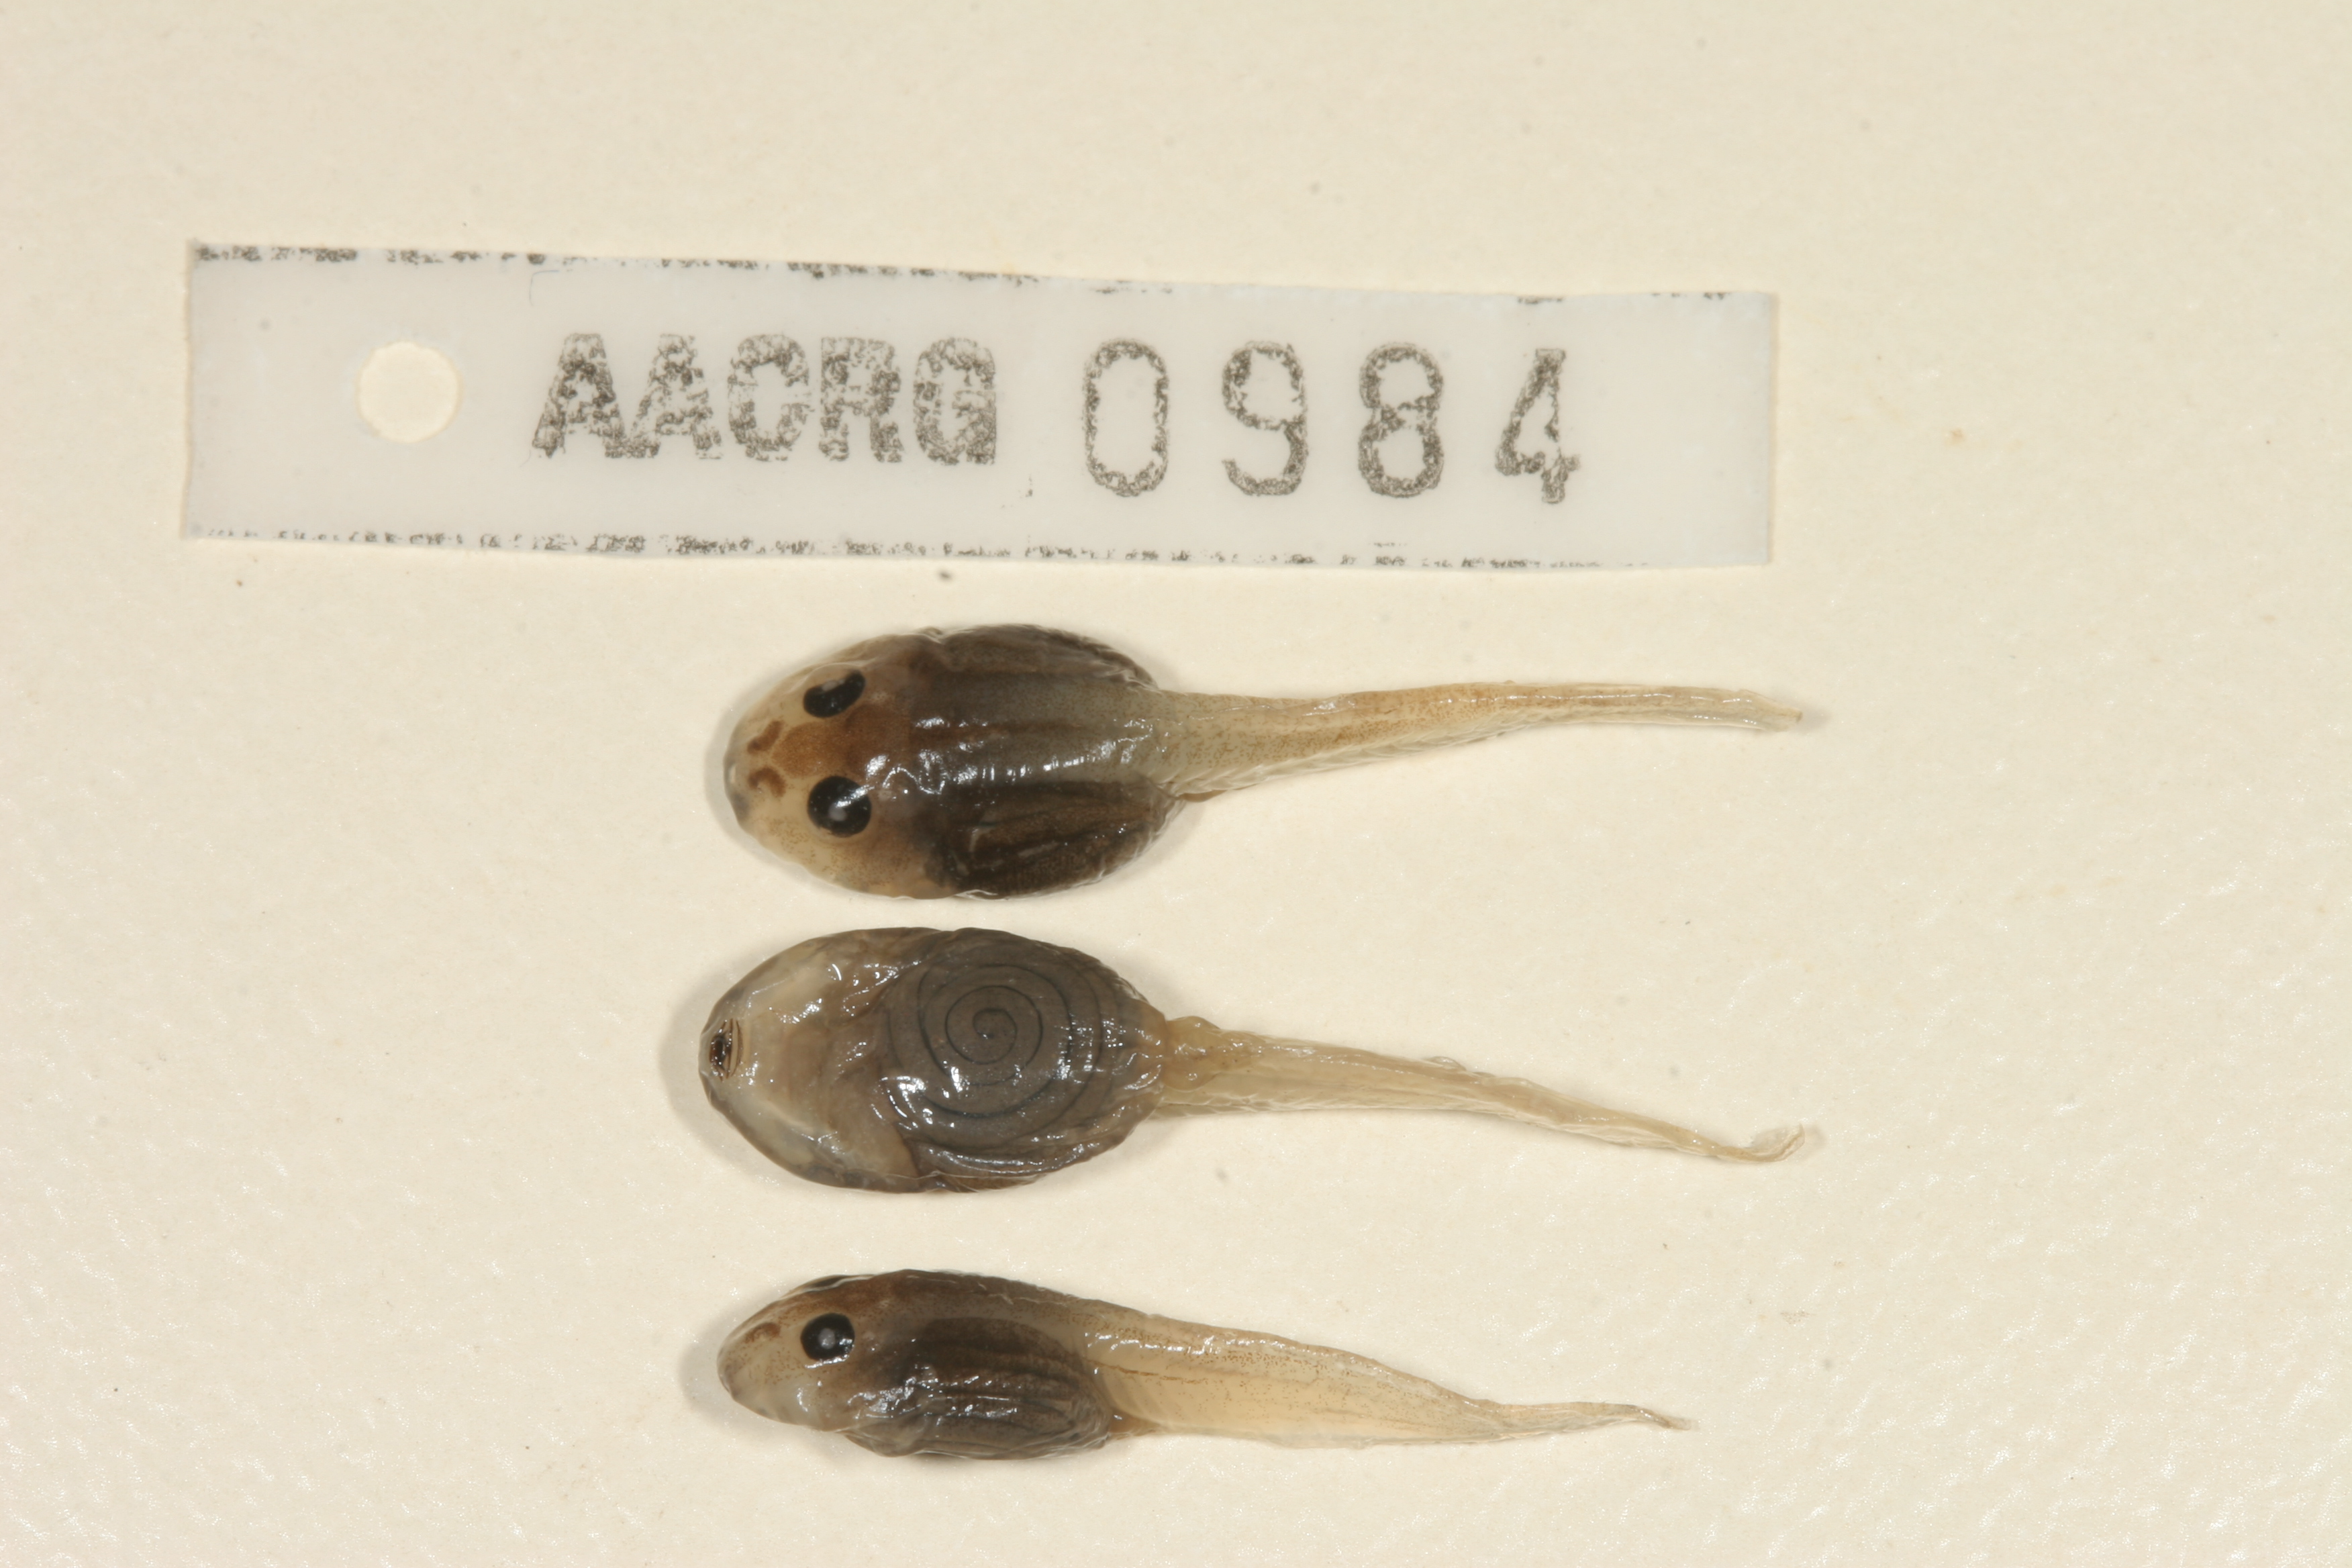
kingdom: Animalia
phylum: Chordata
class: Amphibia
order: Anura
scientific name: Anura
